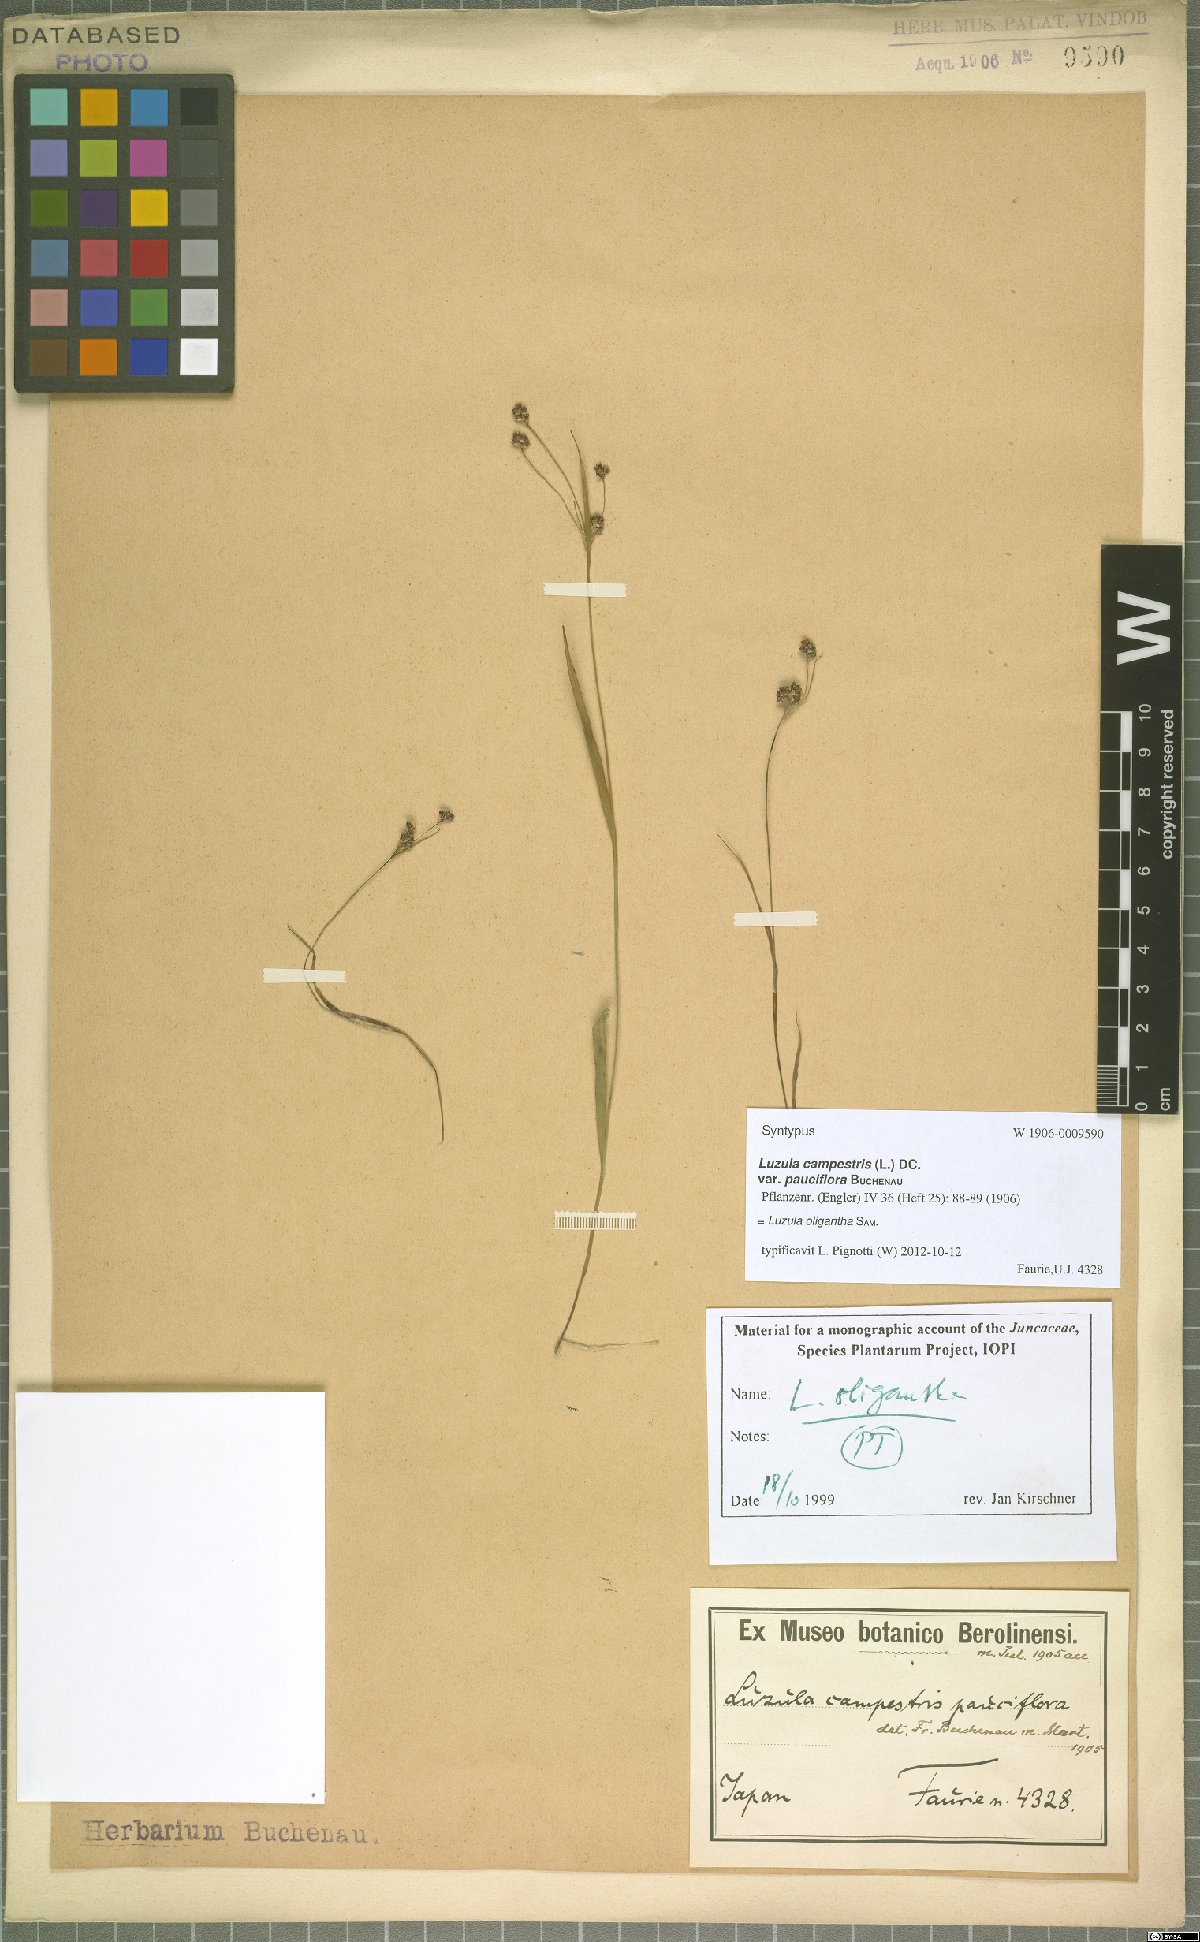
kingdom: Plantae
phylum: Tracheophyta
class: Liliopsida
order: Poales
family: Juncaceae
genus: Luzula
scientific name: Luzula oligantha
